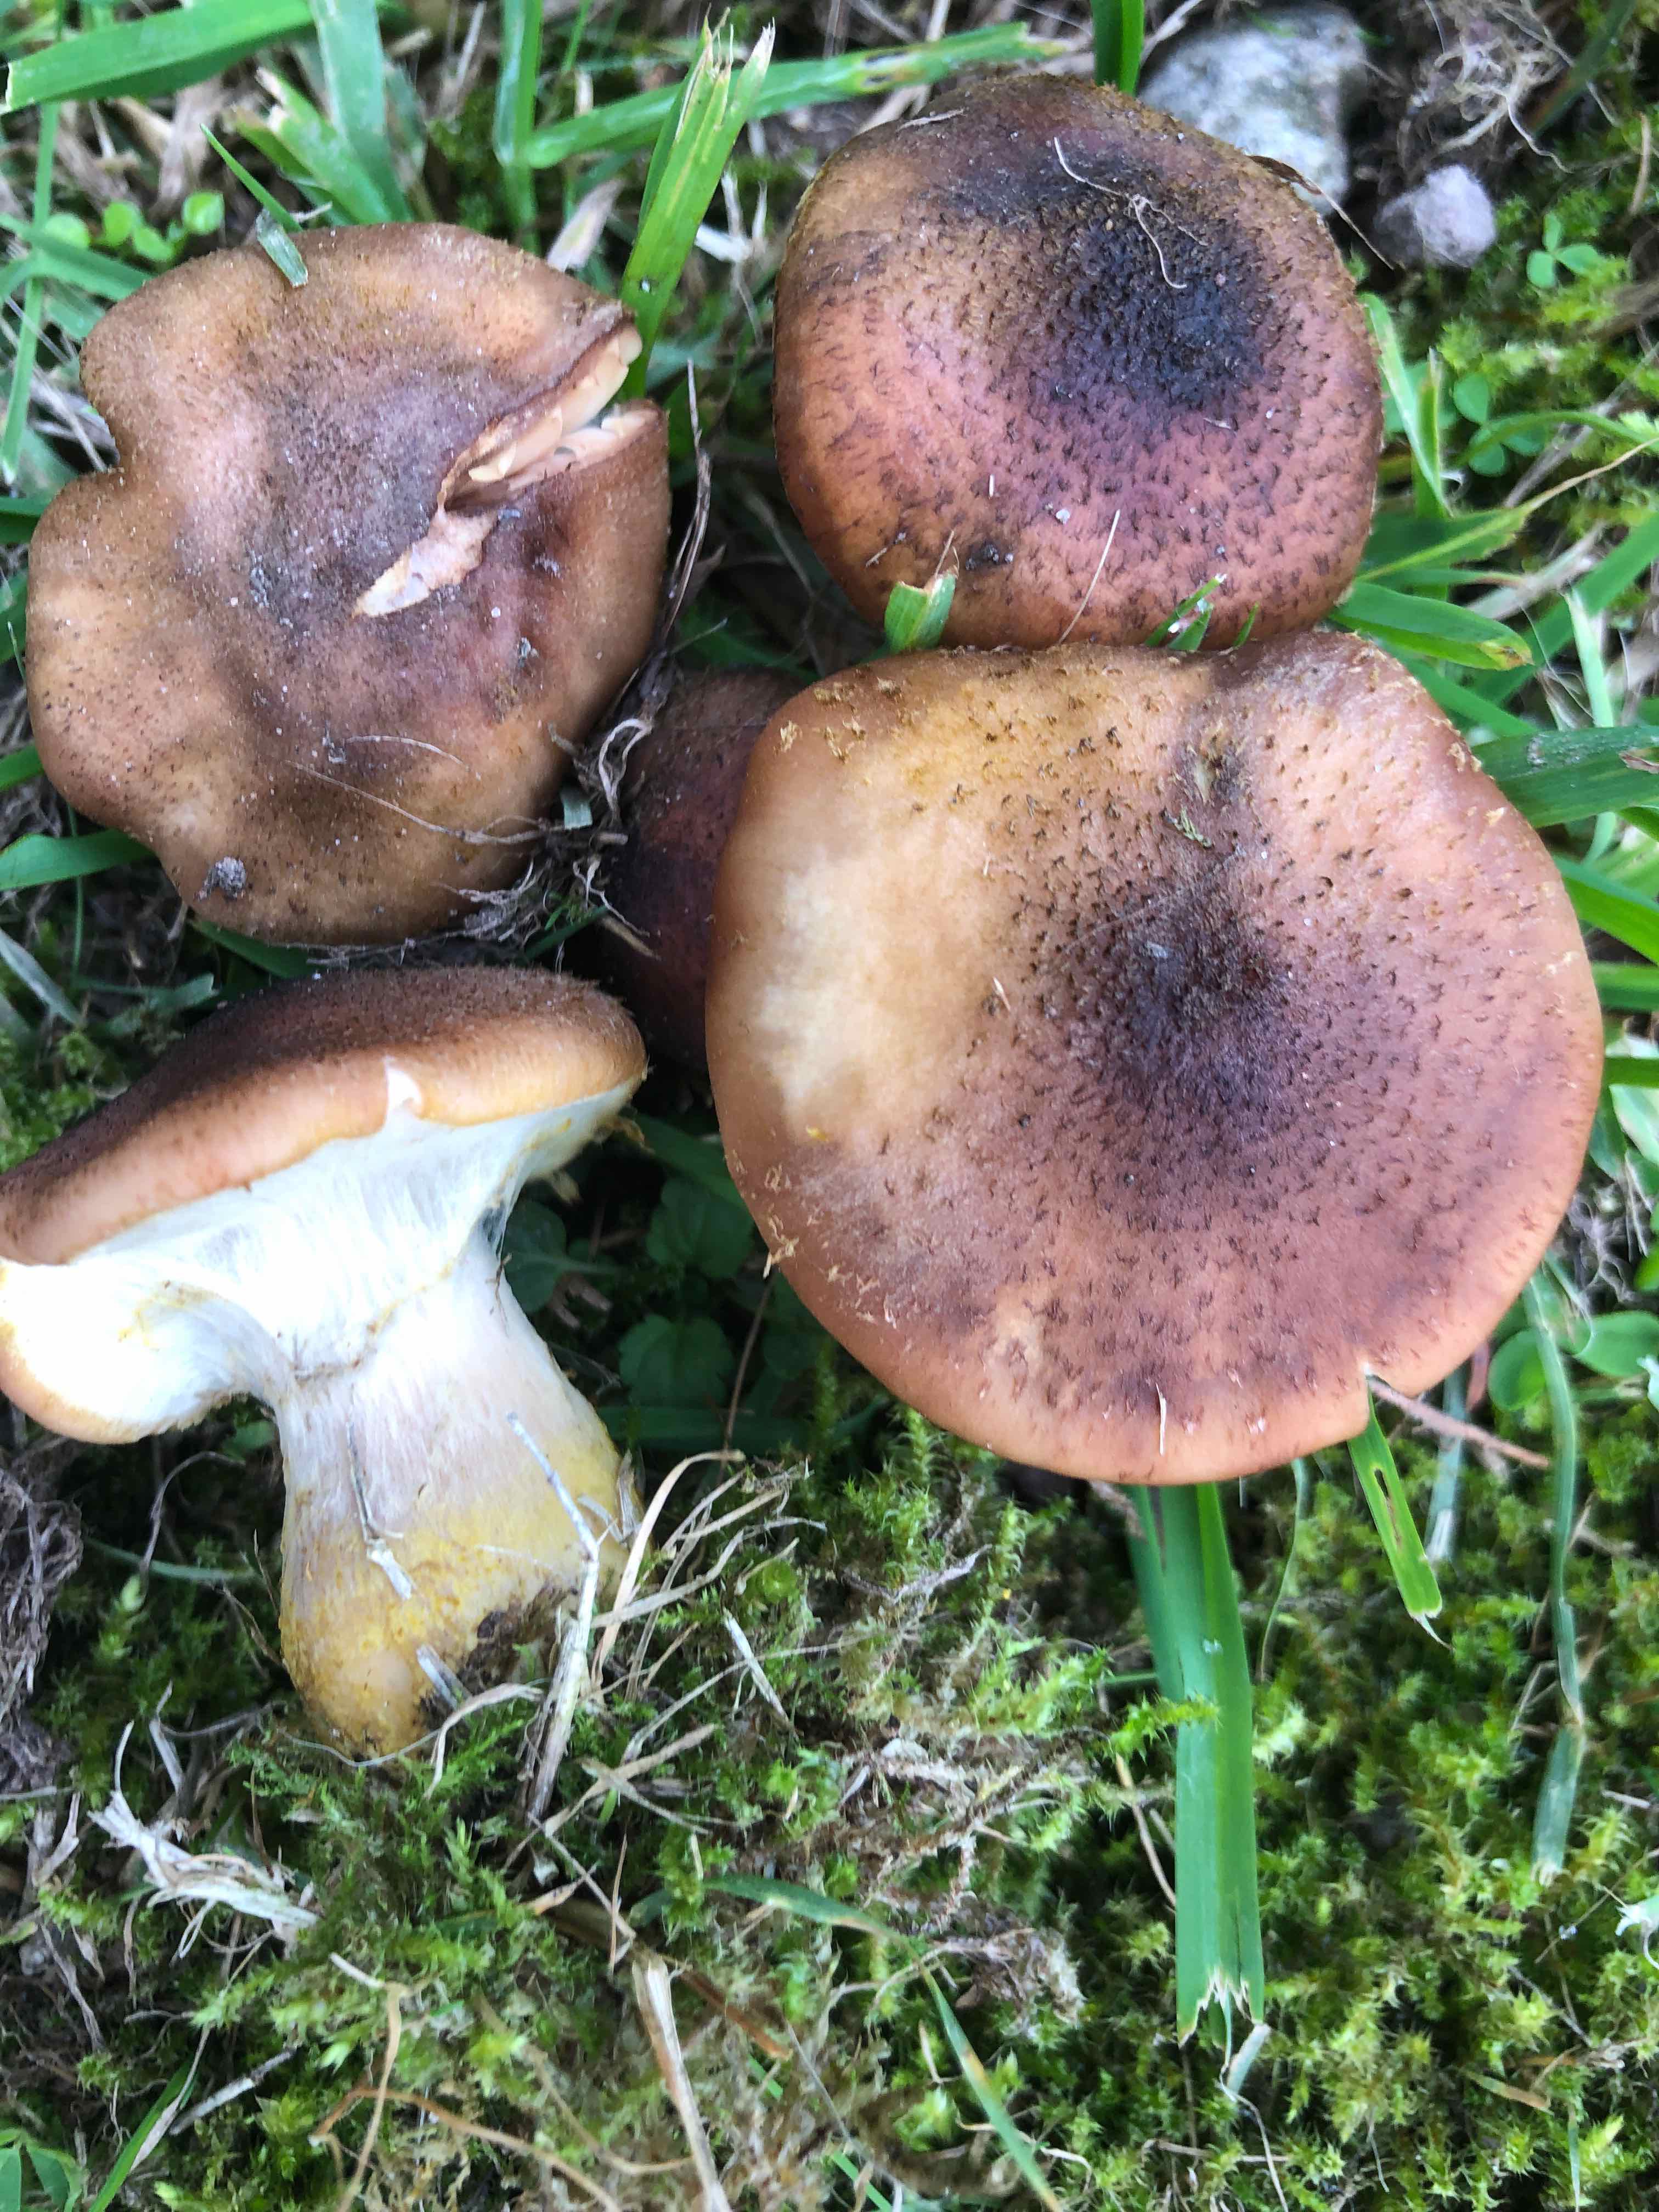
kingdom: Fungi
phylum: Basidiomycota
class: Agaricomycetes
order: Agaricales
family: Physalacriaceae
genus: Armillaria
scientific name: Armillaria lutea
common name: køllestokket honningsvamp
